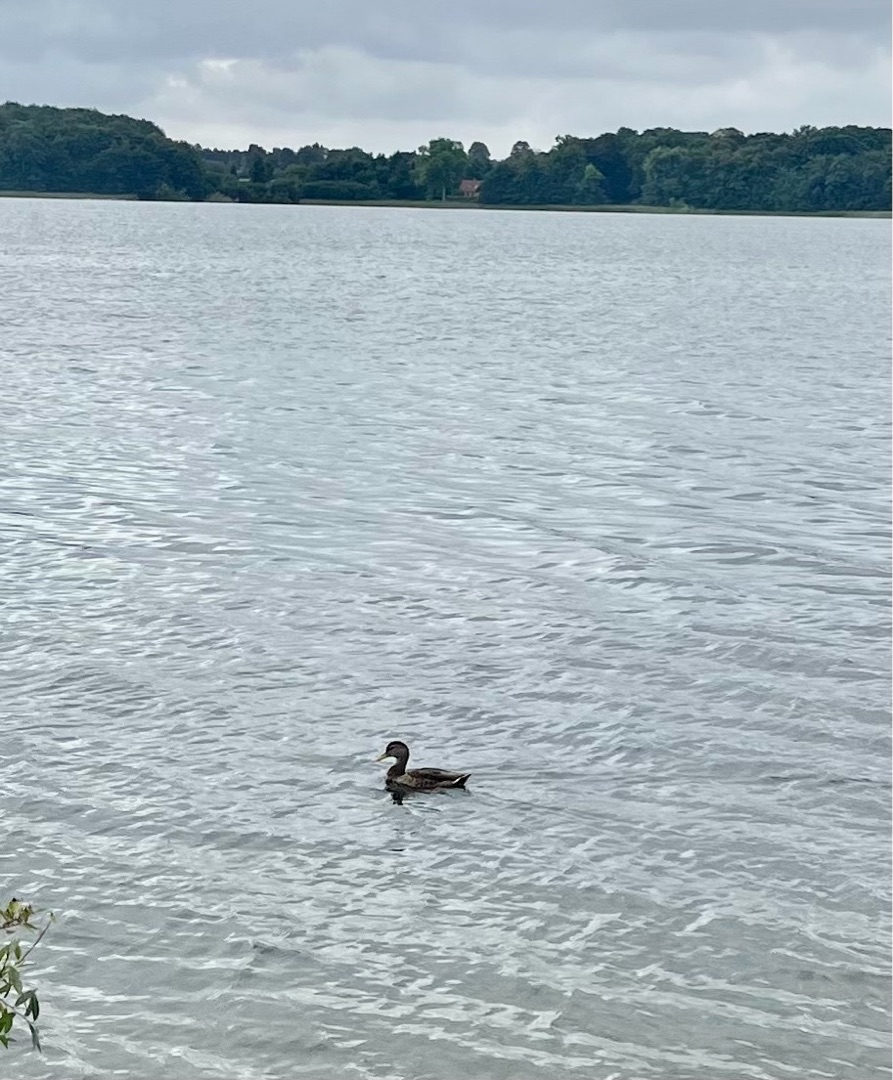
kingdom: Animalia
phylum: Chordata
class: Aves
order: Anseriformes
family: Anatidae
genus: Anas
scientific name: Anas platyrhynchos
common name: Gråand
